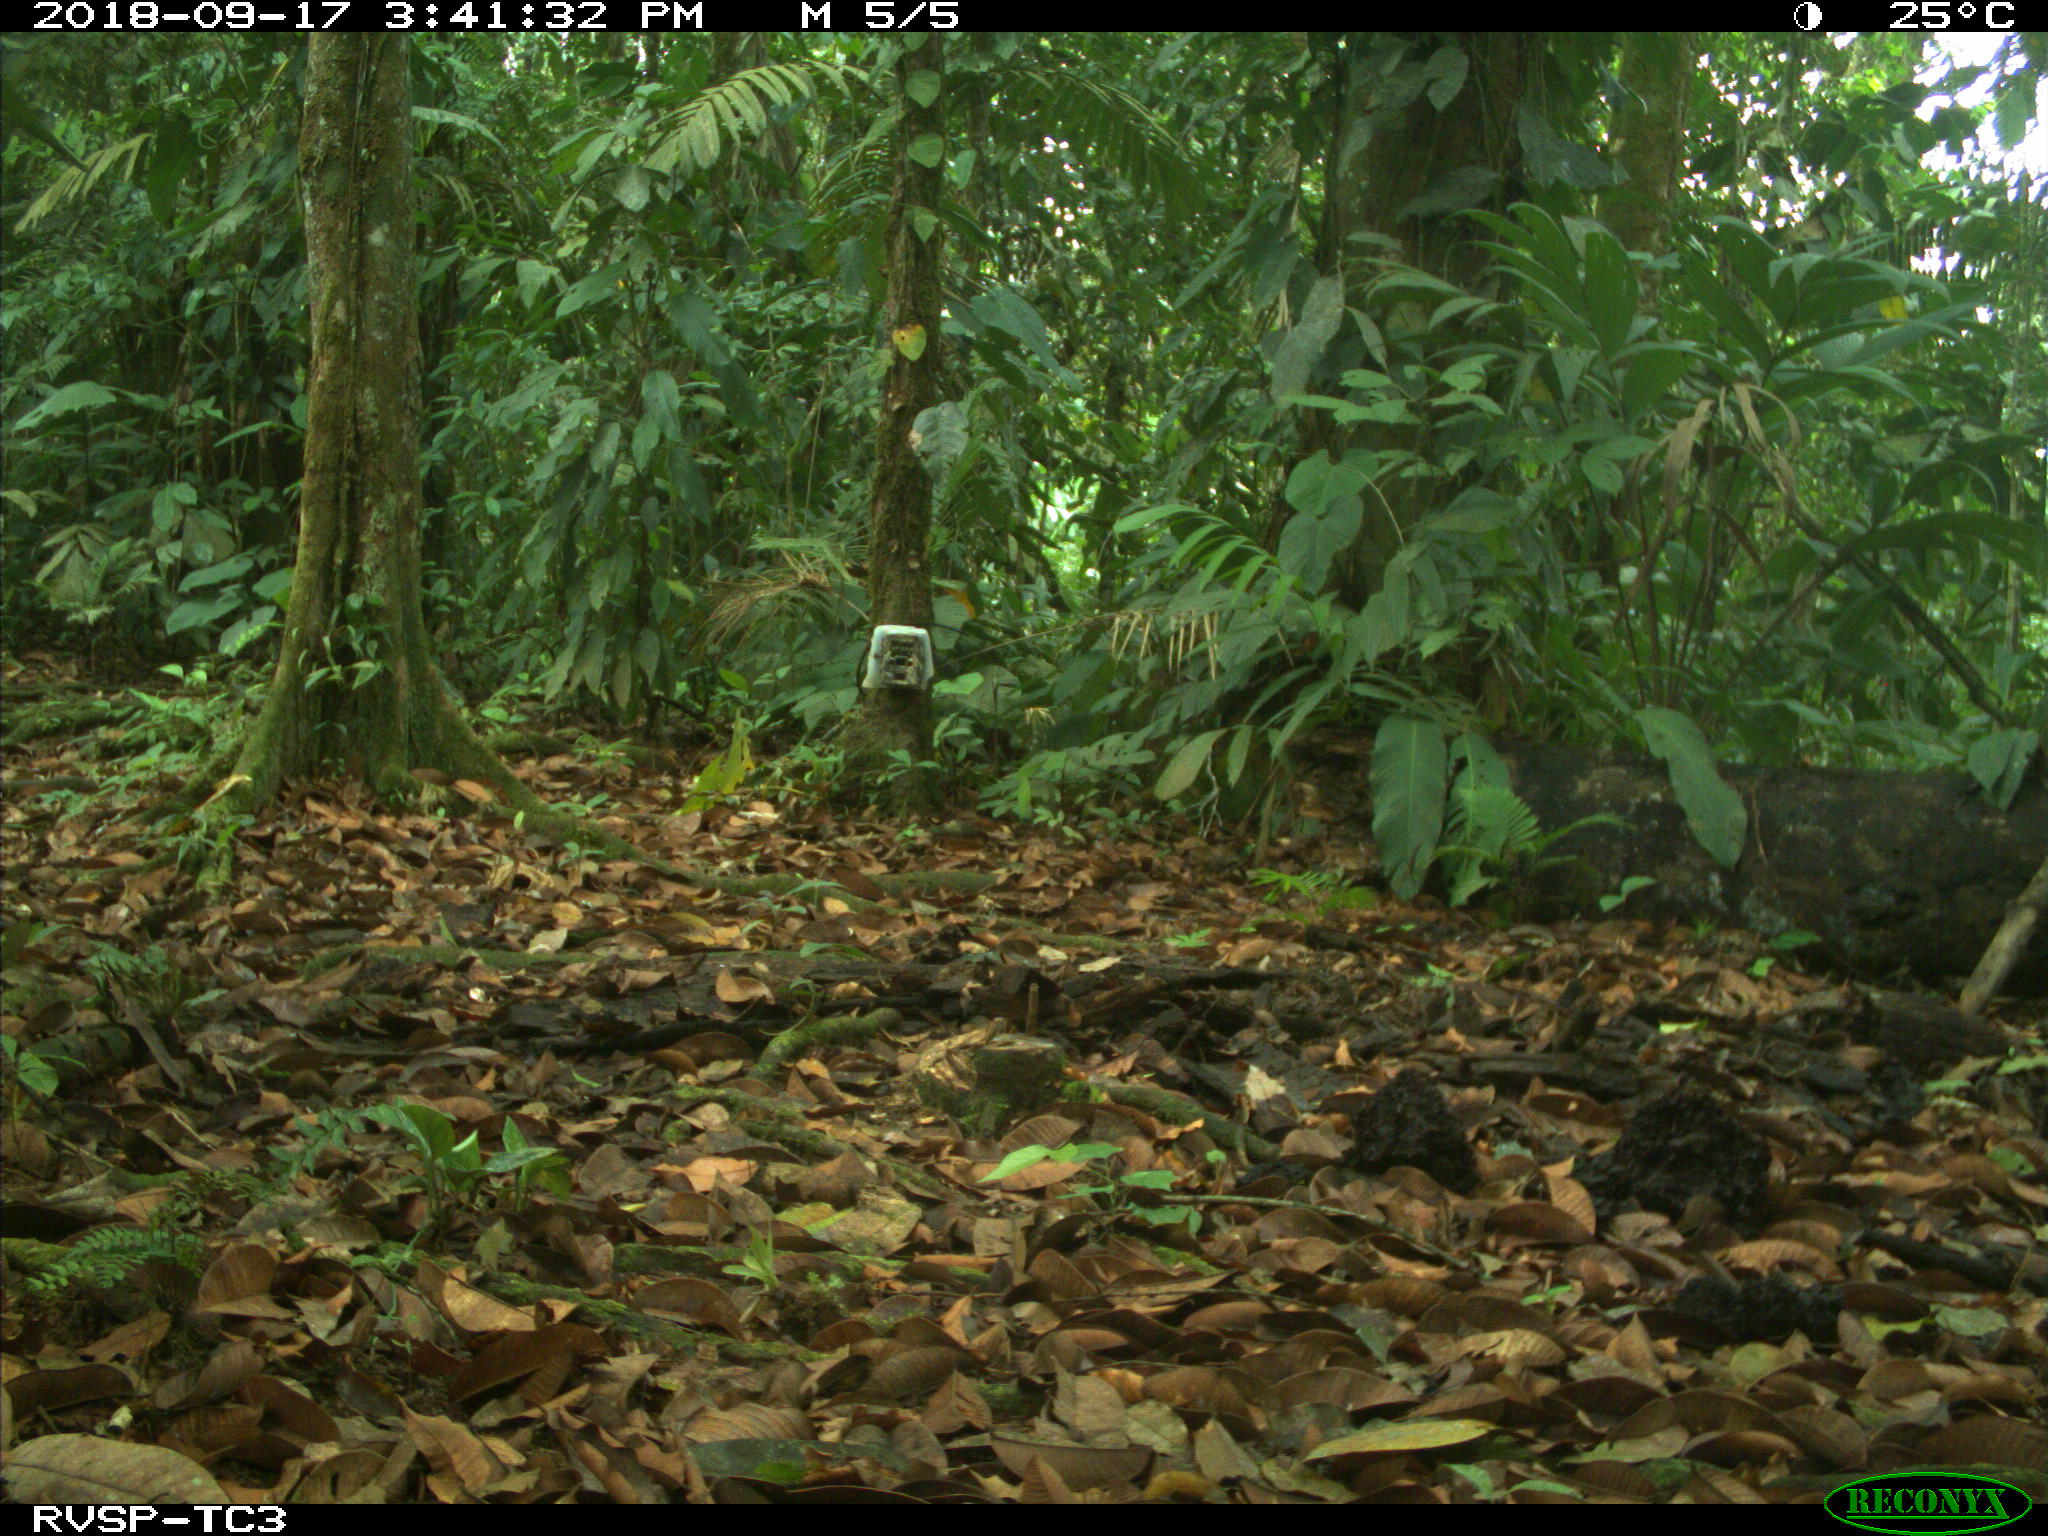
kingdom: Animalia
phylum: Chordata
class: Mammalia
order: Rodentia
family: Dasyproctidae
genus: Dasyprocta
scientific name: Dasyprocta punctata
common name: Central american agouti
